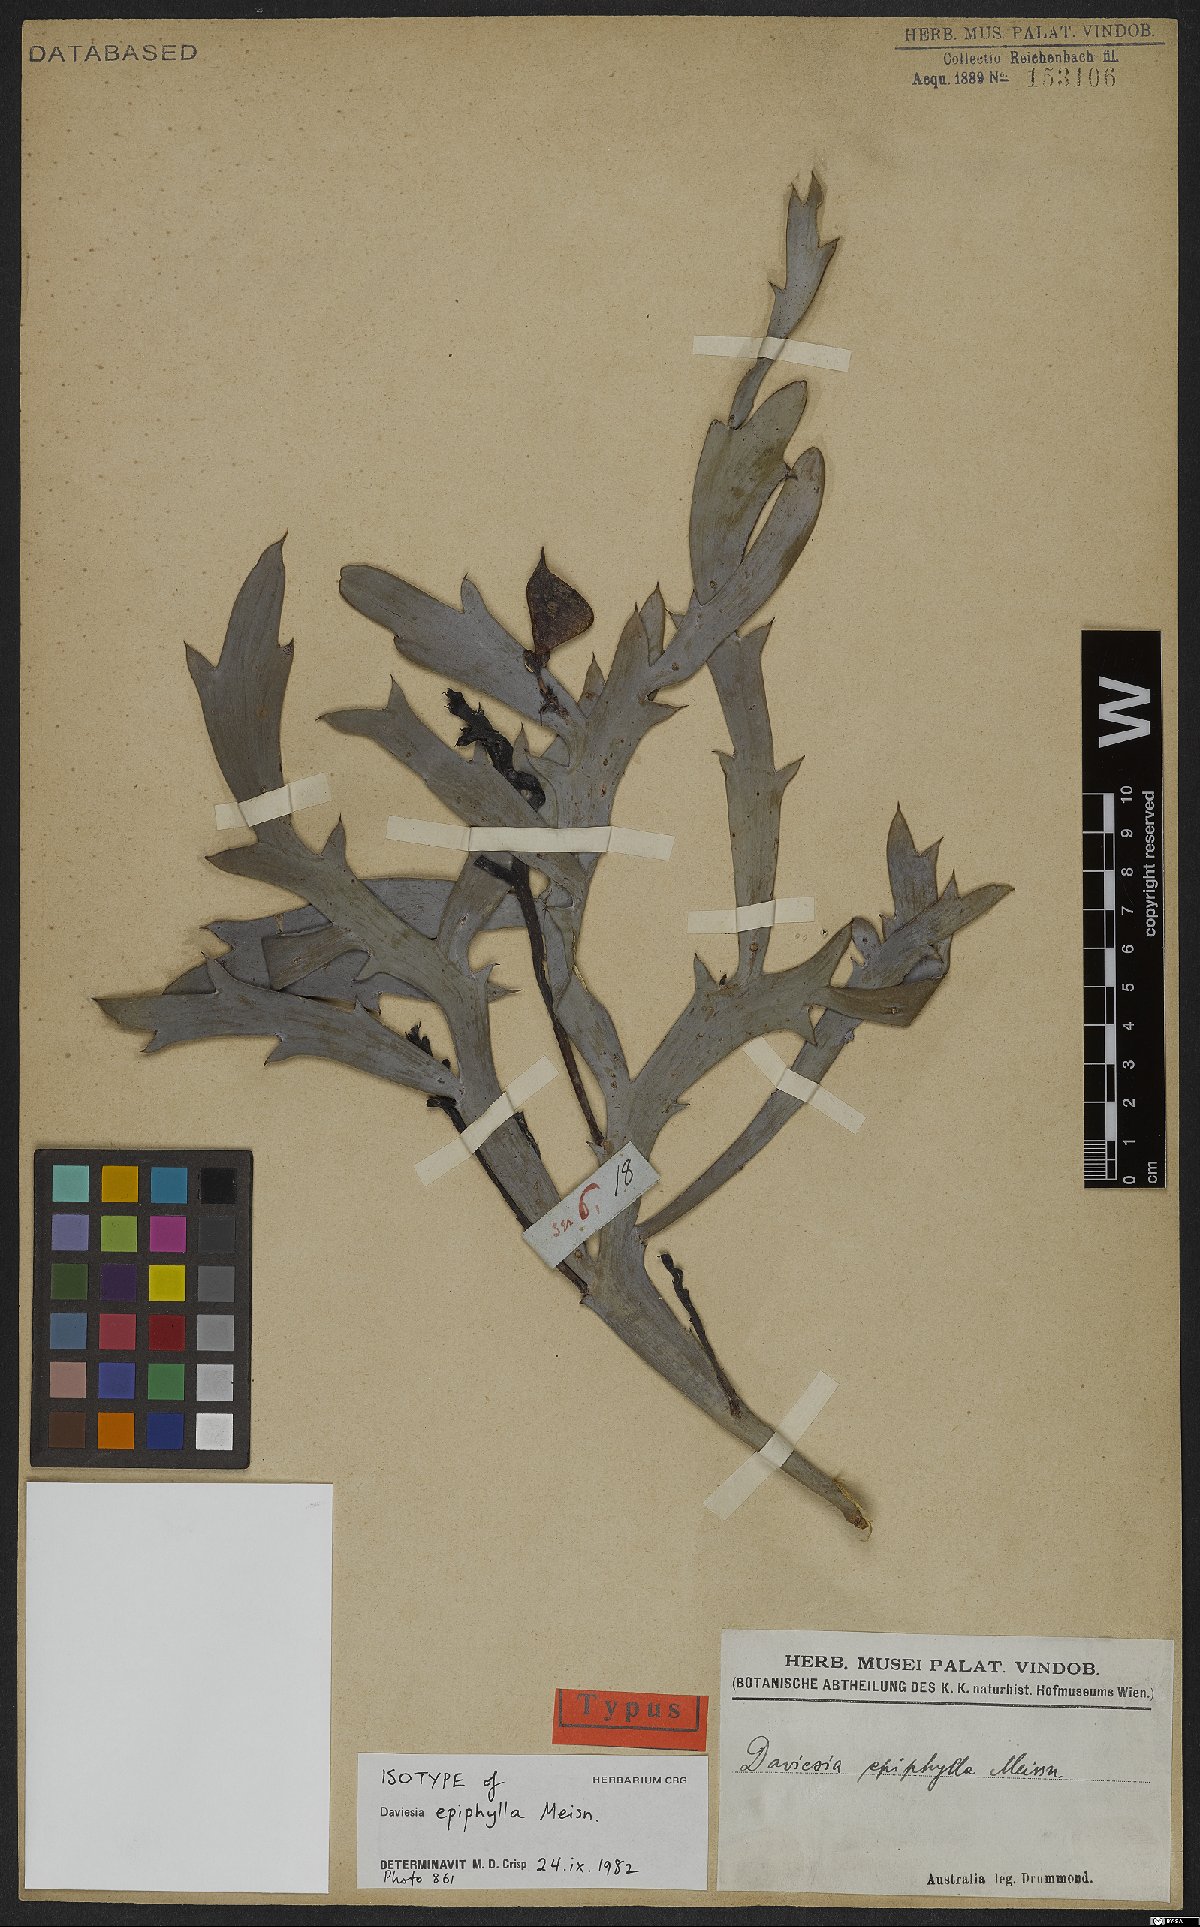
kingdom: Plantae
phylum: Tracheophyta
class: Magnoliopsida
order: Fabales
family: Fabaceae
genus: Daviesia
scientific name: Daviesia epiphyllum
